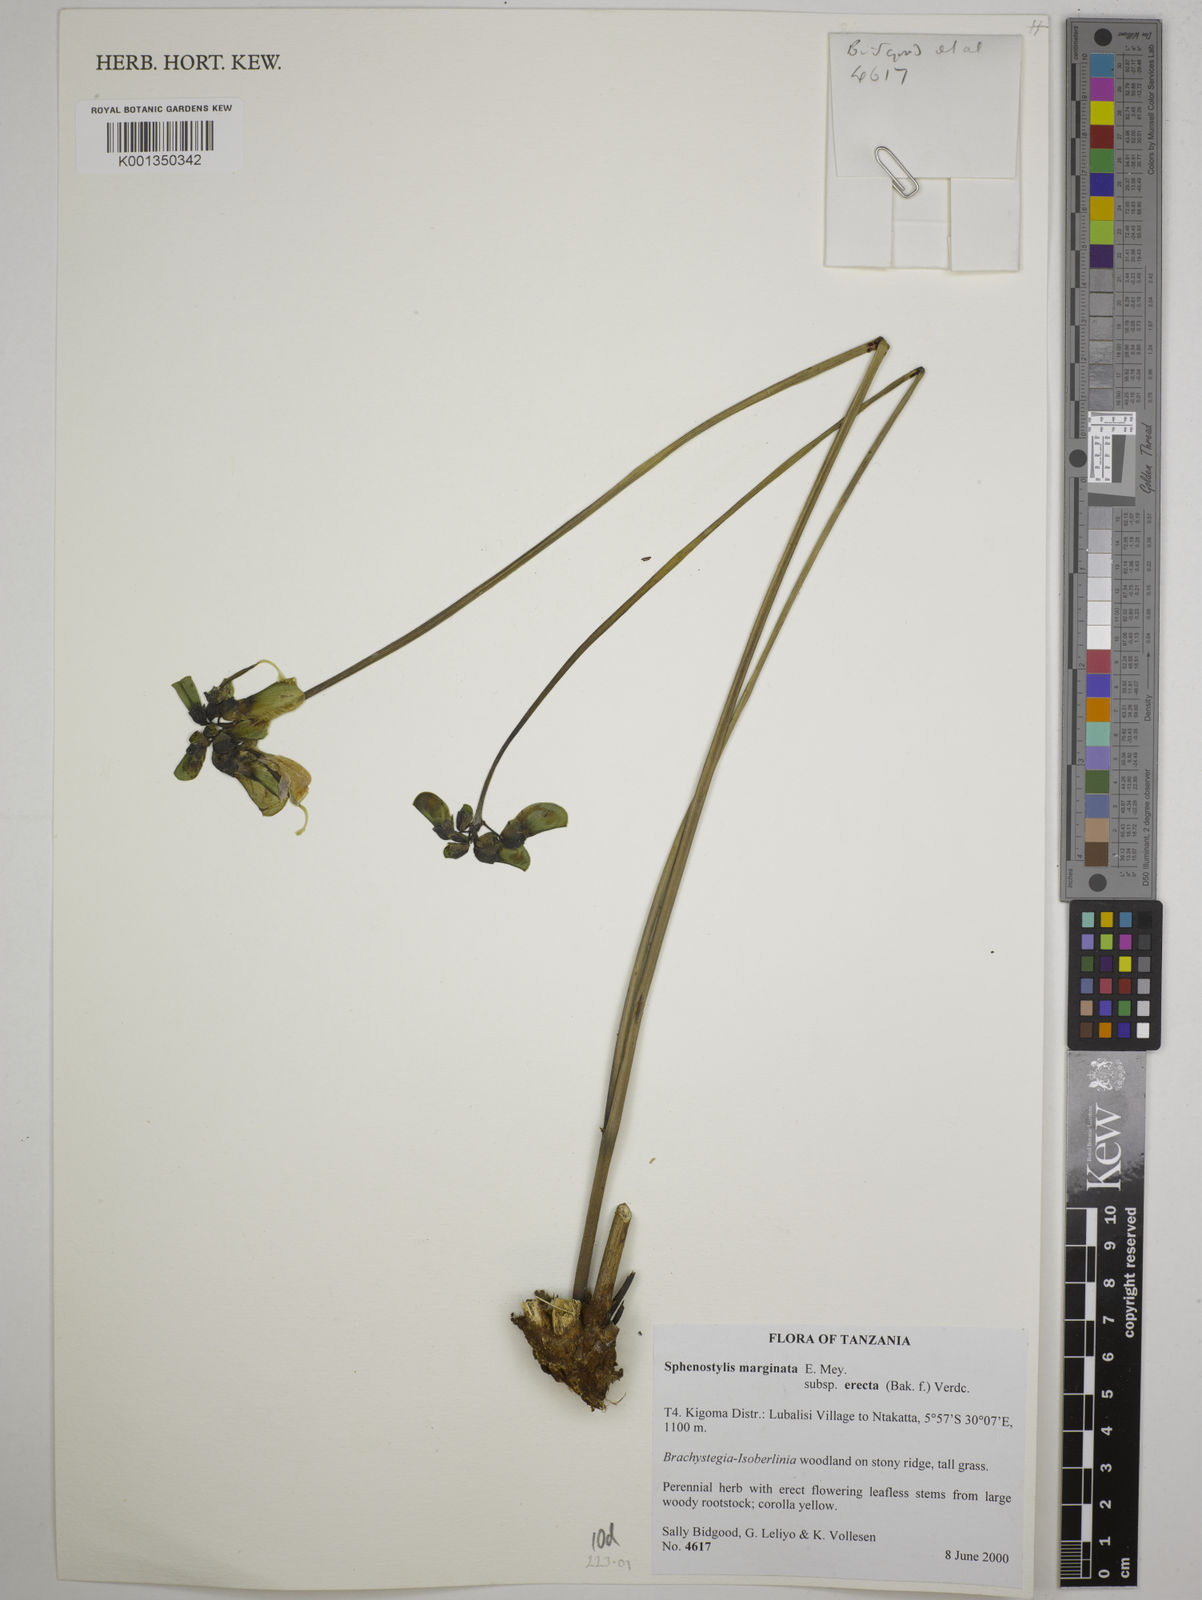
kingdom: Plantae
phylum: Tracheophyta
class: Magnoliopsida
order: Fabales
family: Fabaceae
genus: Sphenostylis
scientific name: Sphenostylis
